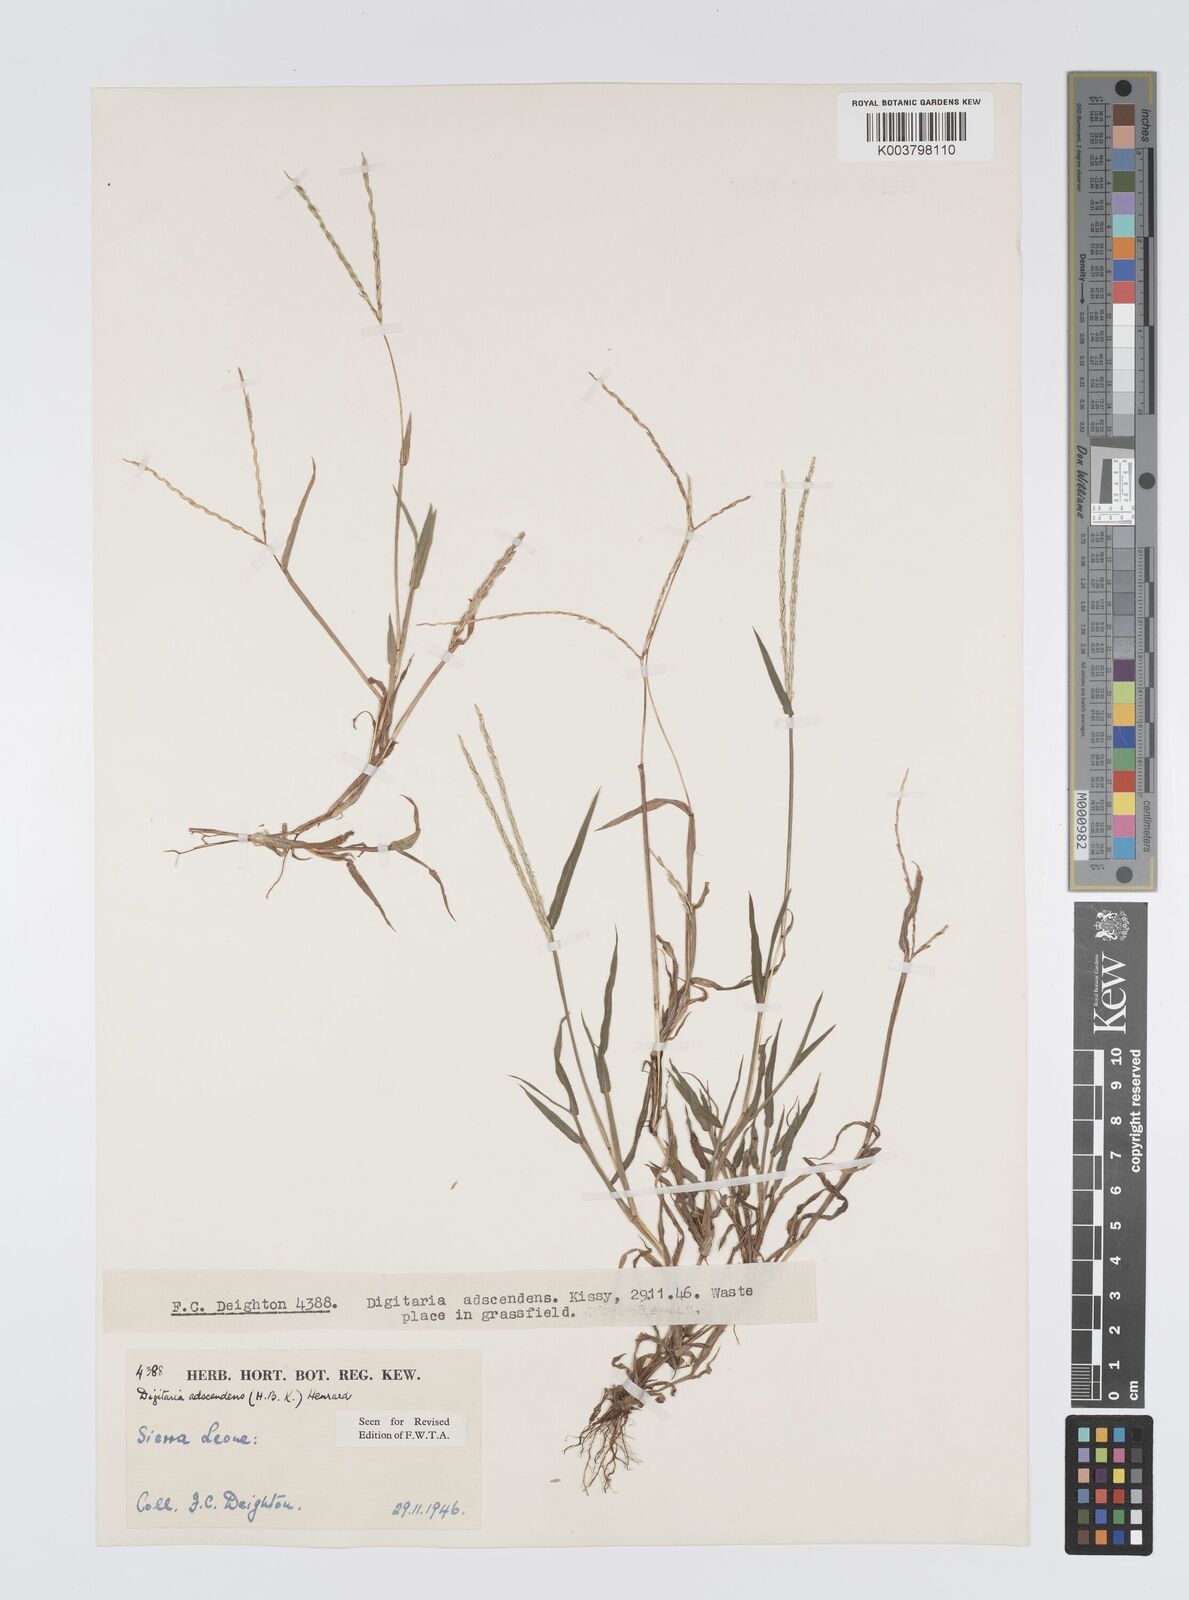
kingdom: Plantae
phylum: Tracheophyta
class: Liliopsida
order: Poales
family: Poaceae
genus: Digitaria
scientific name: Digitaria
